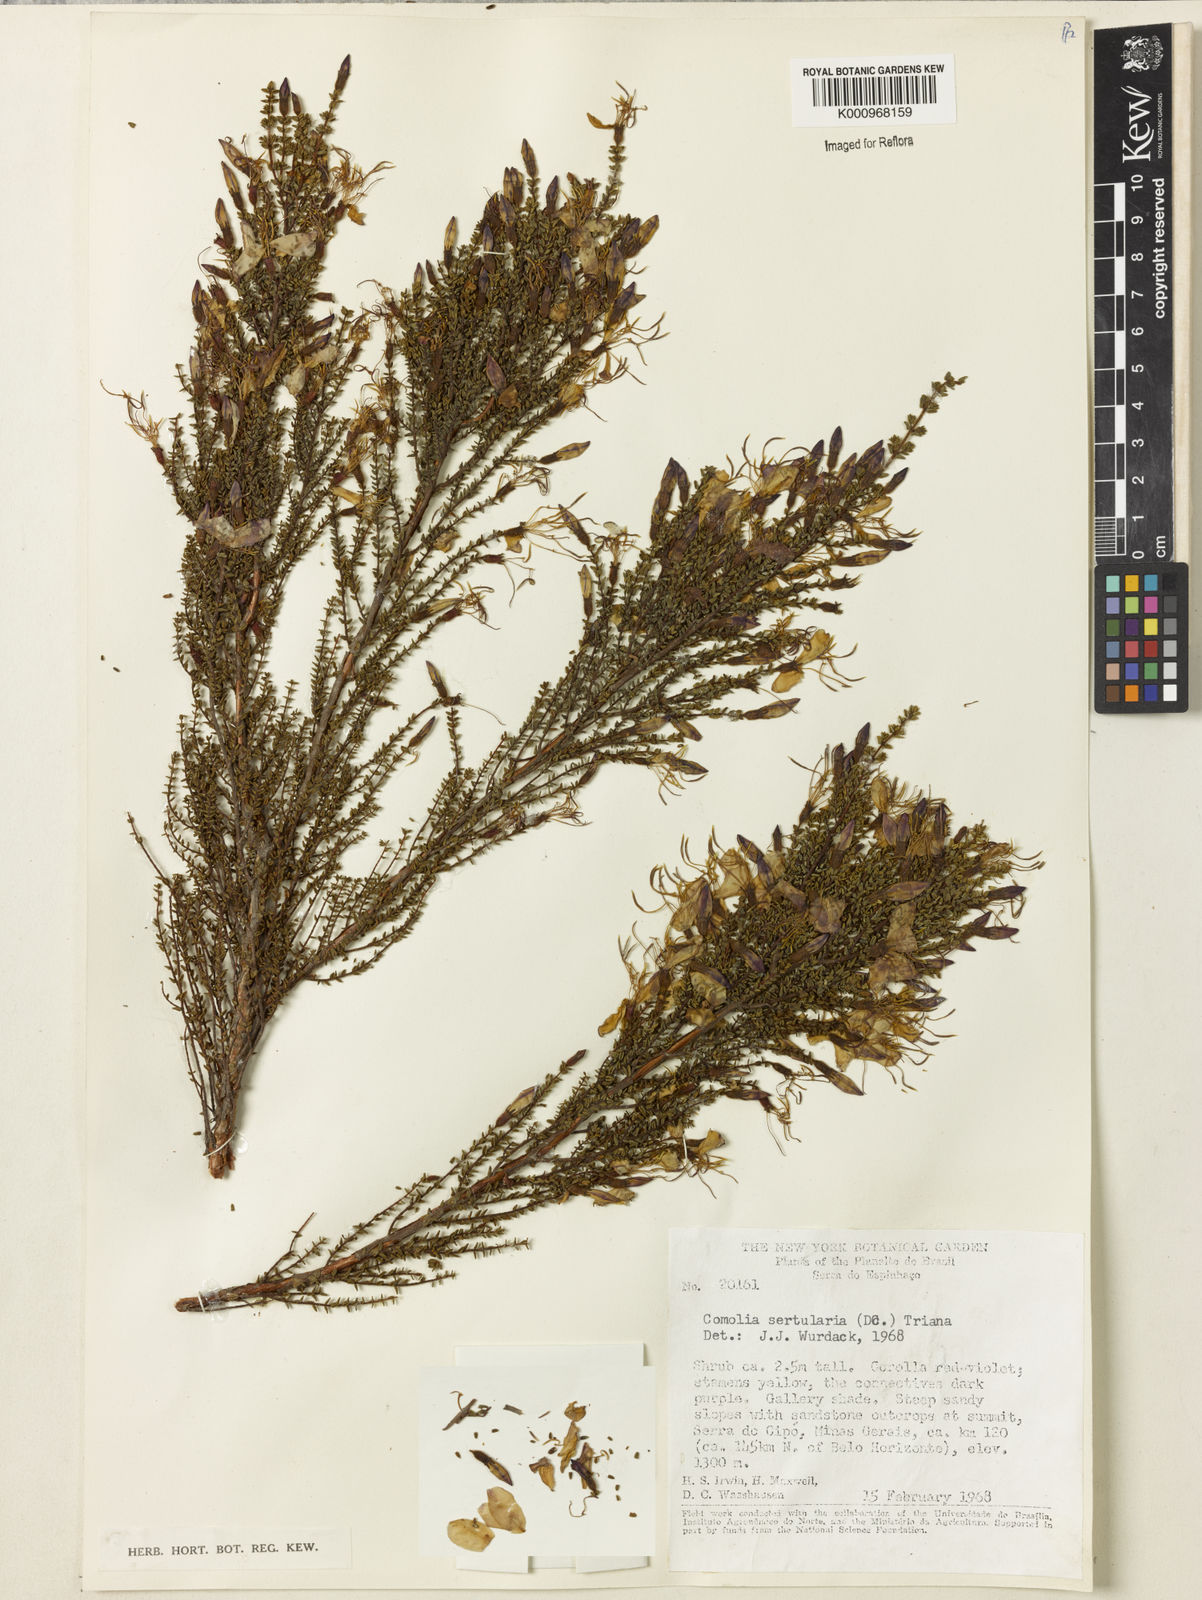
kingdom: Plantae
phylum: Tracheophyta
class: Magnoliopsida
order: Myrtales
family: Melastomataceae
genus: Fritzschia
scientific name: Fritzschia sertularia
